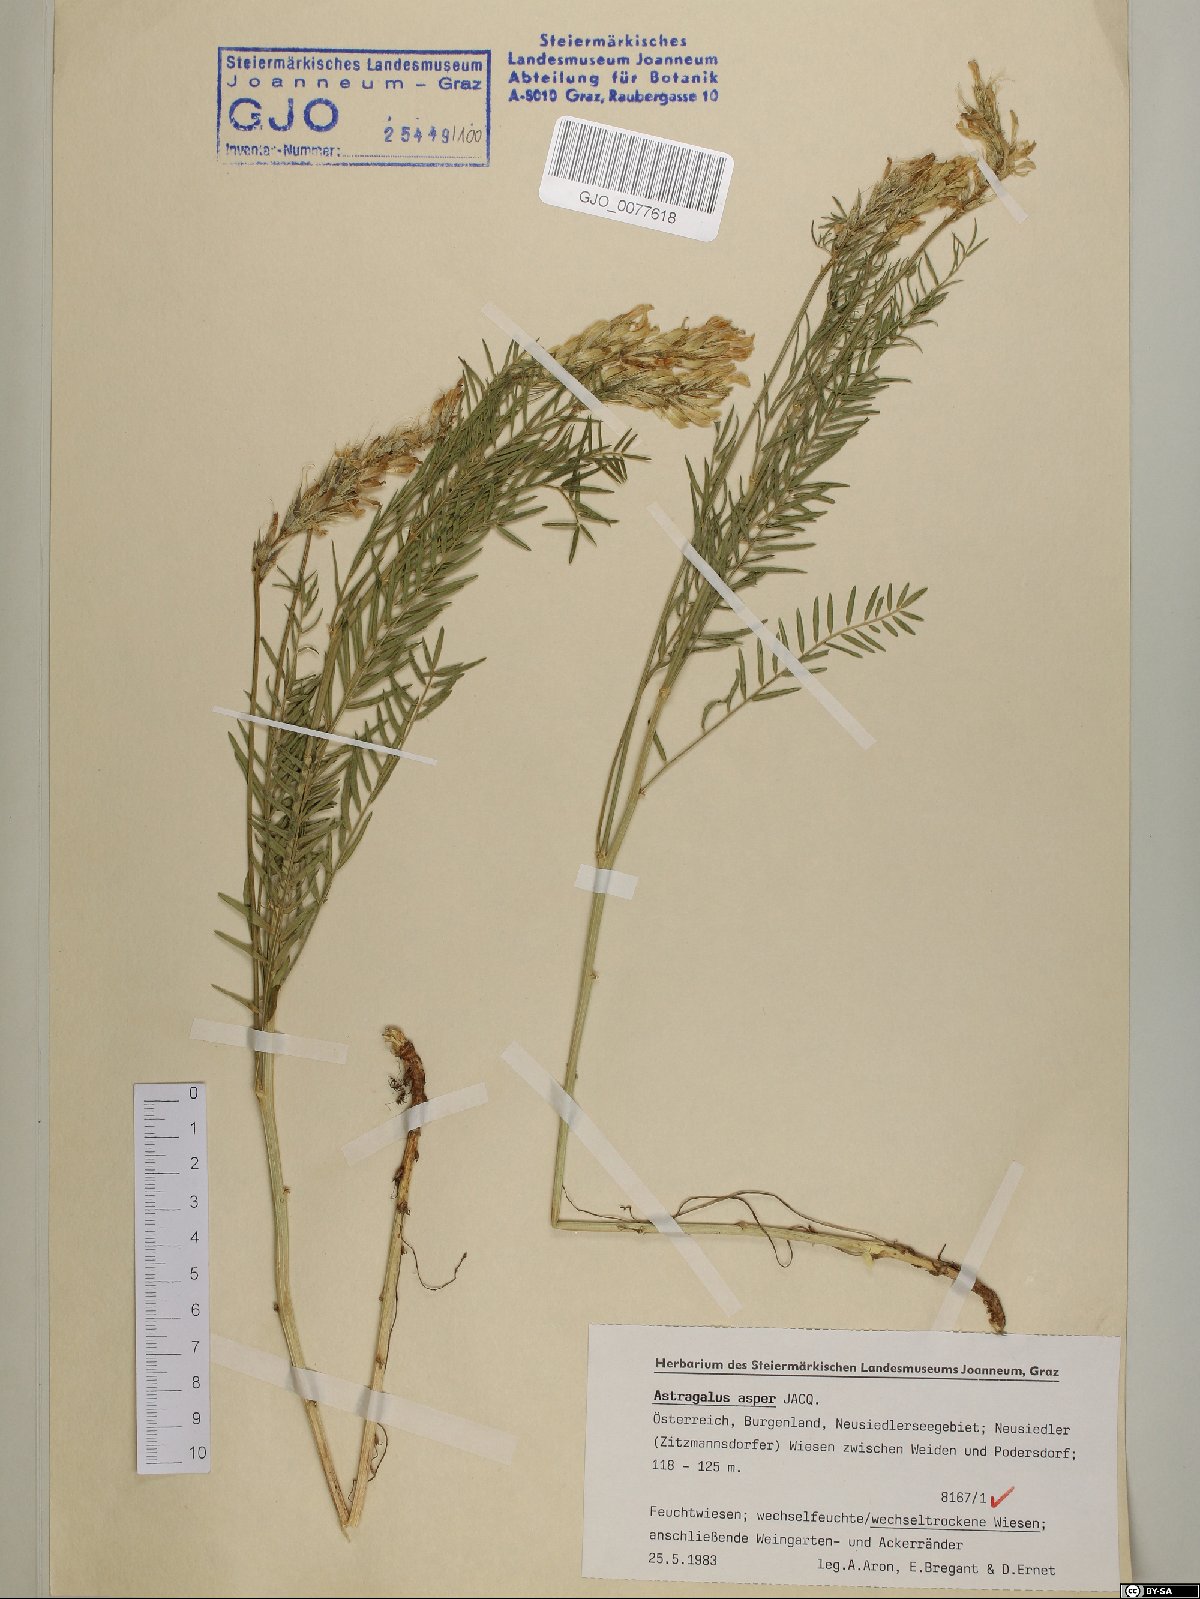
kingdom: Plantae
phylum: Tracheophyta
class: Magnoliopsida
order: Fabales
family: Fabaceae
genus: Astragalus
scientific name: Astragalus asper
